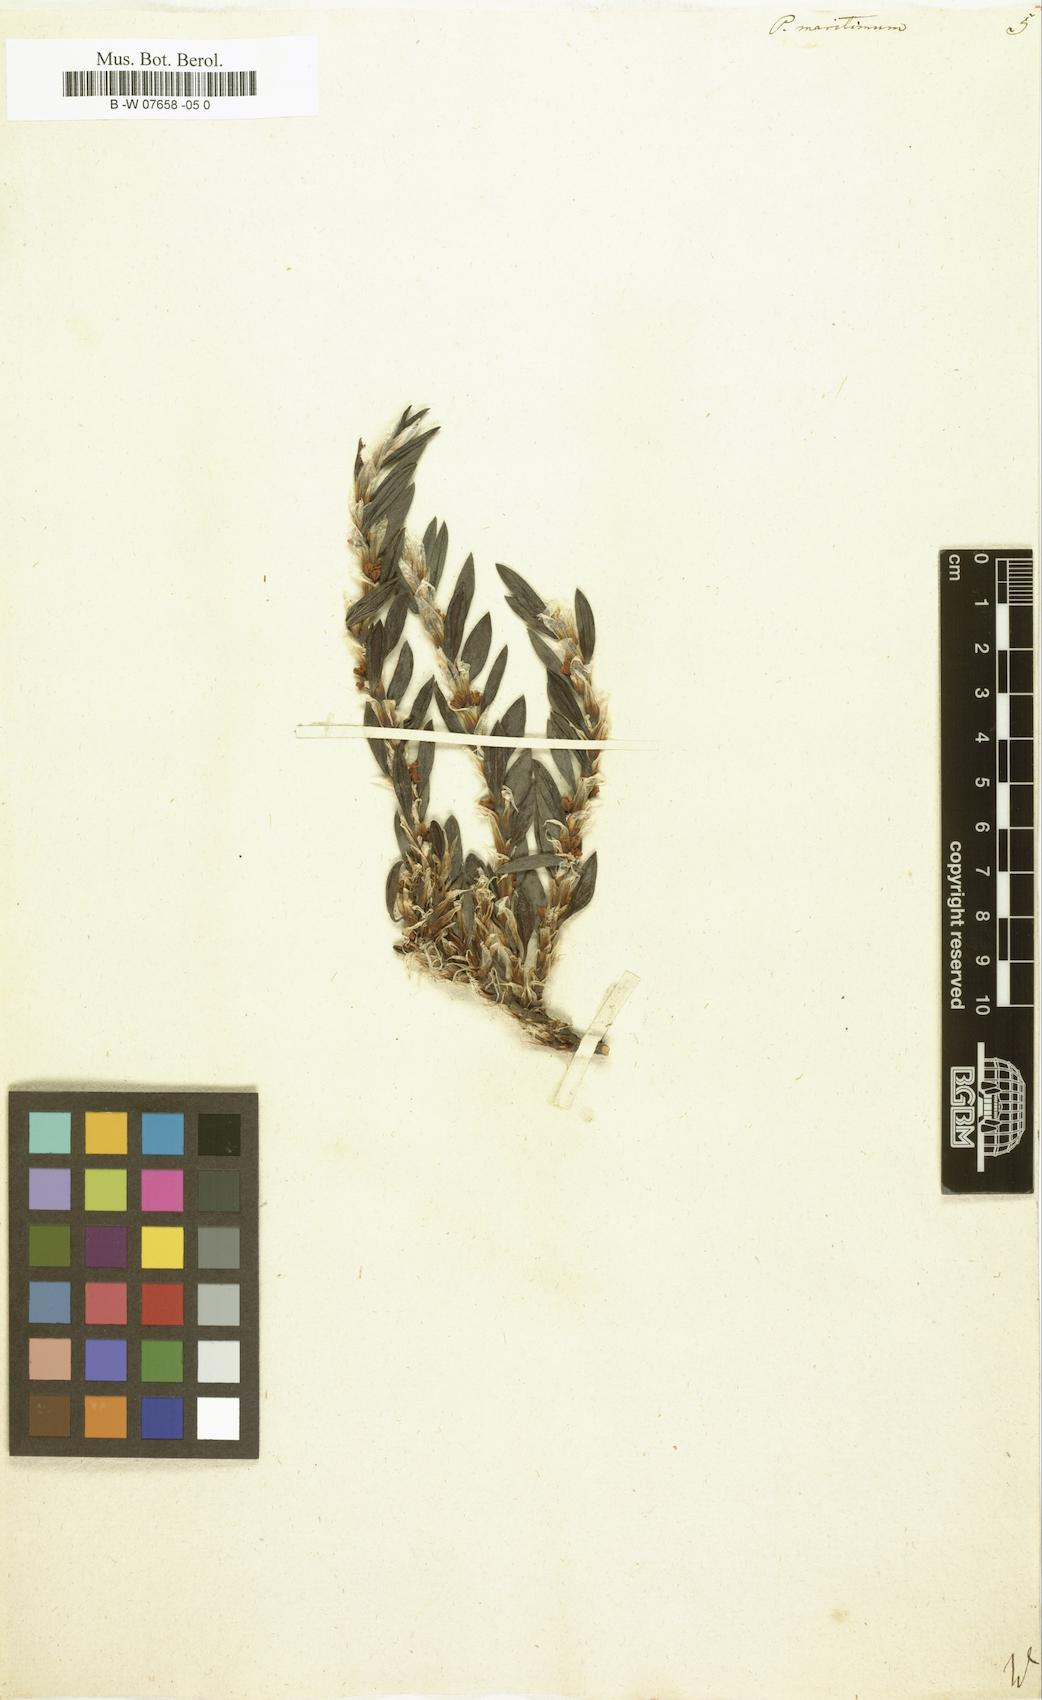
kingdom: Plantae
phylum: Tracheophyta
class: Magnoliopsida
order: Caryophyllales
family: Polygonaceae
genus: Polygonum
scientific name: Polygonum maritimum
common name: Sea knotgrass
